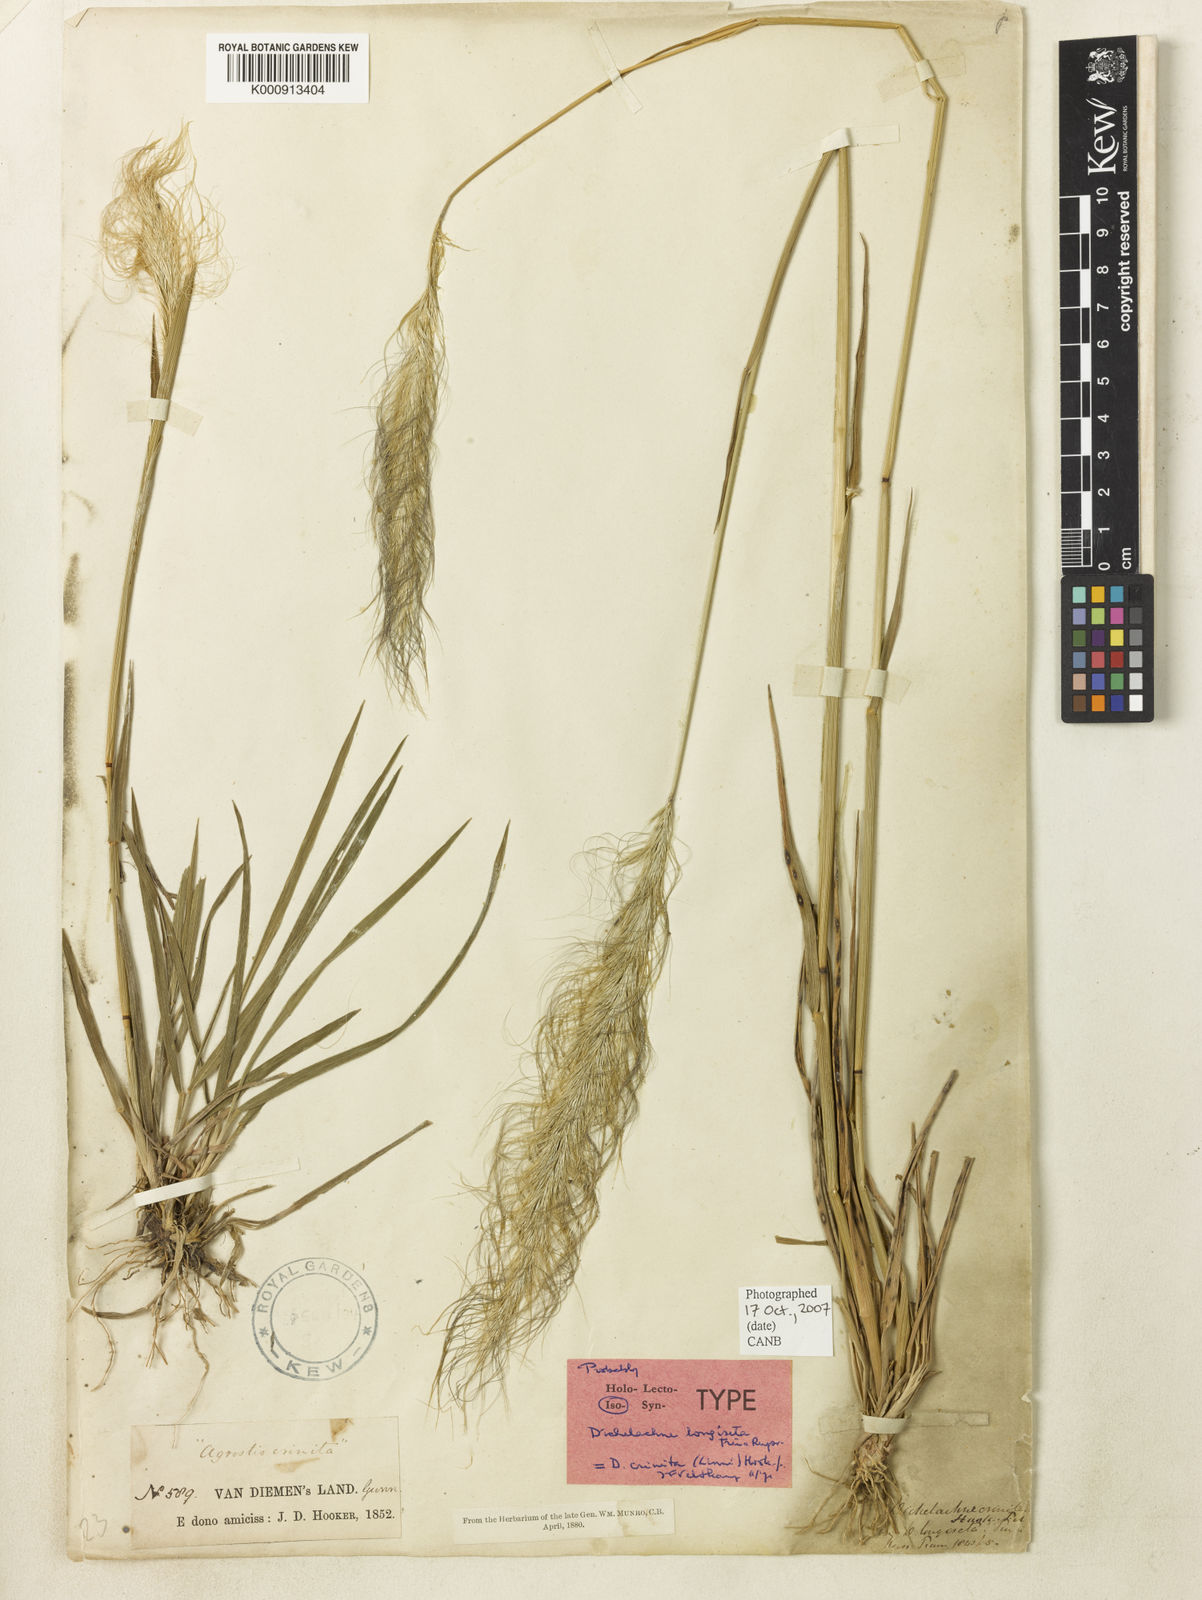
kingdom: Plantae
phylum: Tracheophyta
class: Liliopsida
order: Poales
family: Poaceae
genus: Dichelachne
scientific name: Dichelachne crinita
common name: Clovenfoot plumegrass
